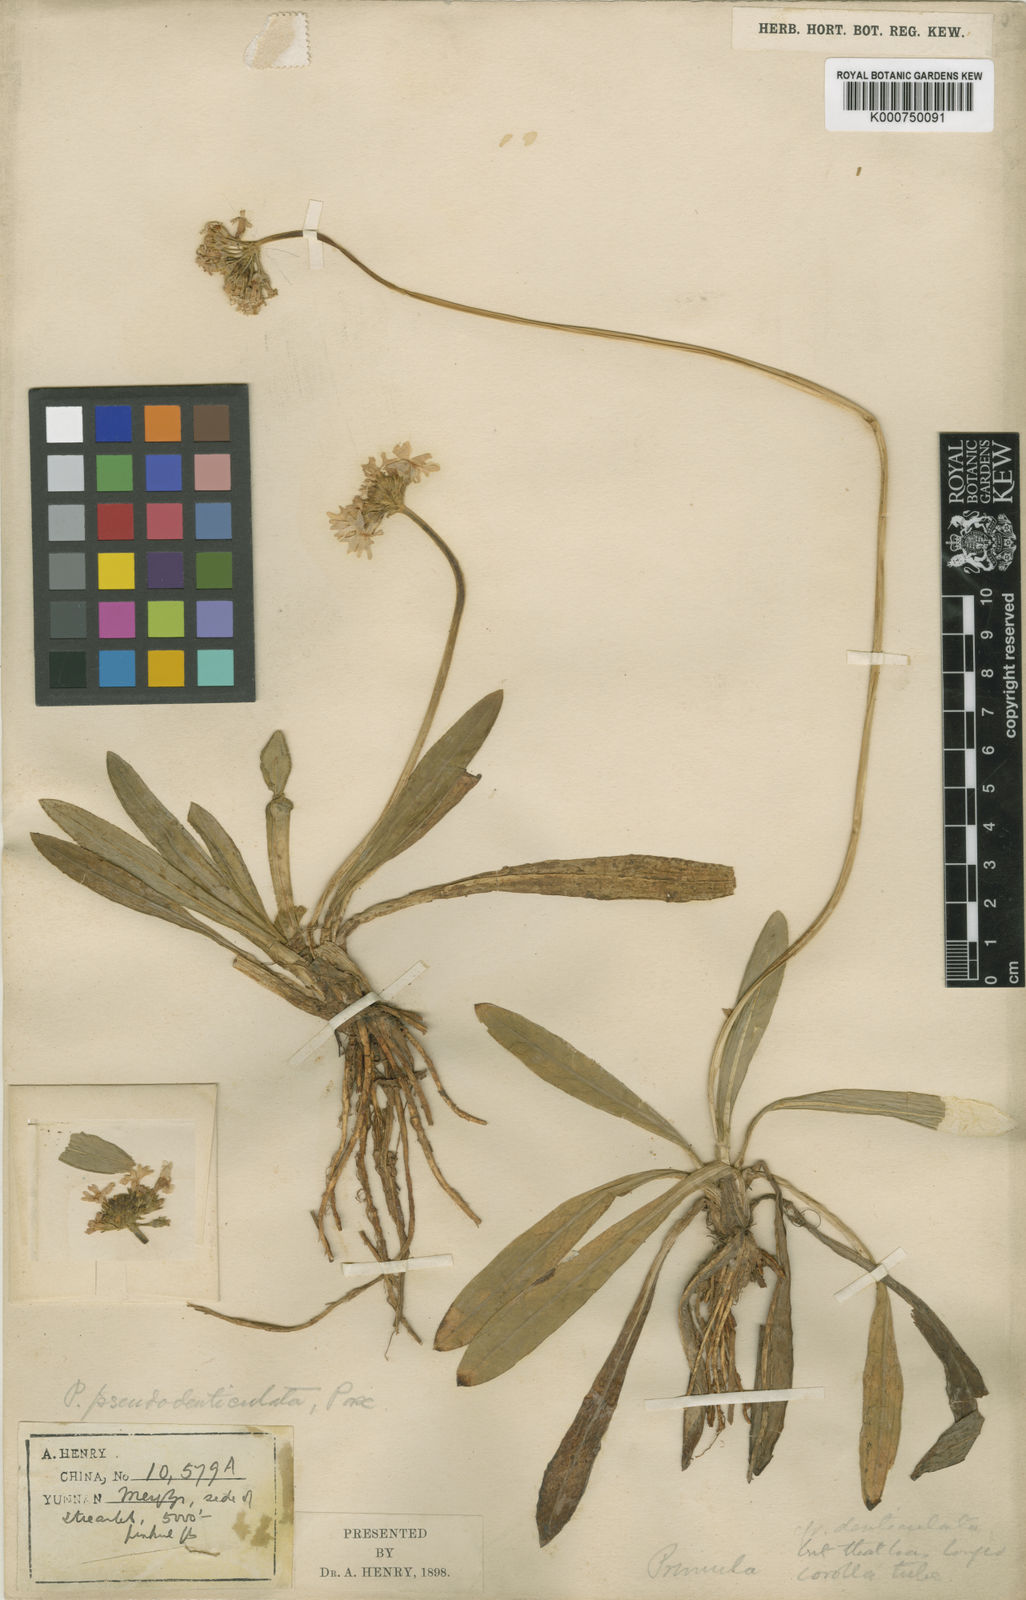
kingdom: Plantae
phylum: Tracheophyta
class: Magnoliopsida
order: Ericales
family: Primulaceae
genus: Primula
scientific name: Primula pseudodenticulata
